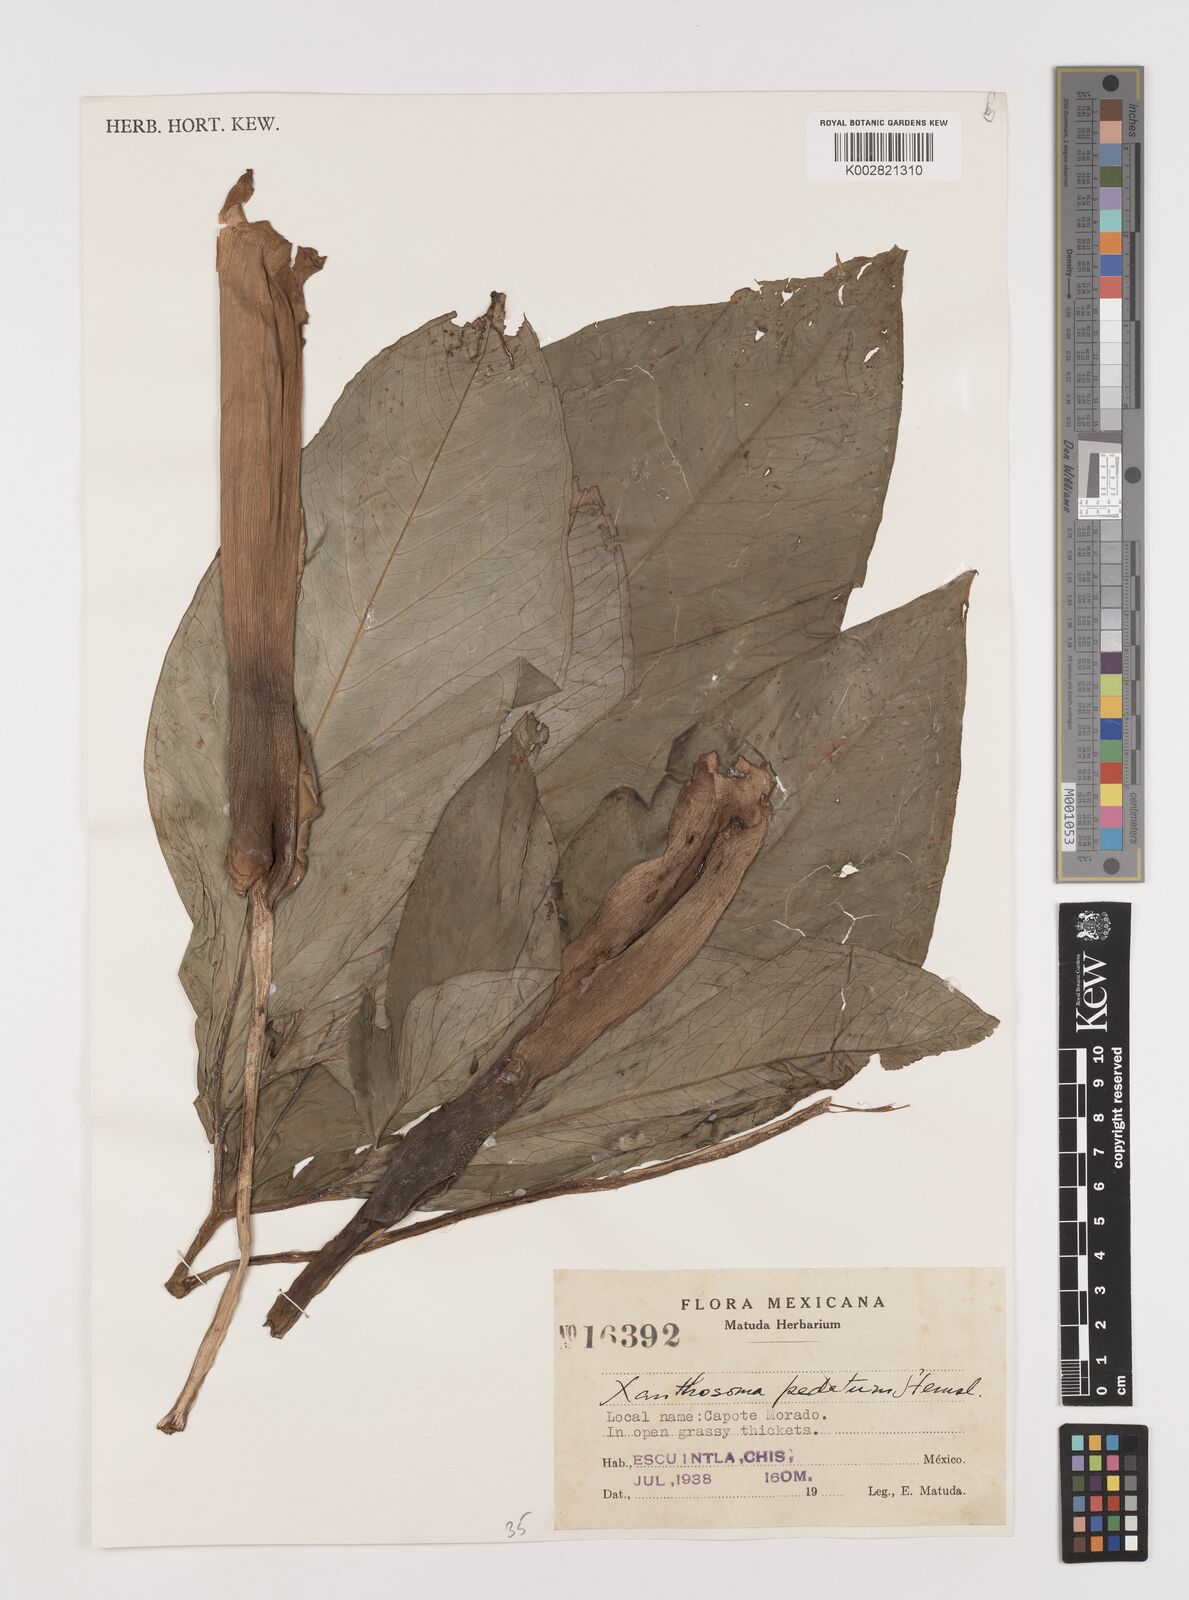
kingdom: Plantae
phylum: Tracheophyta
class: Liliopsida
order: Alismatales
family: Araceae
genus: Xanthosoma
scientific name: Xanthosoma wendlandii
